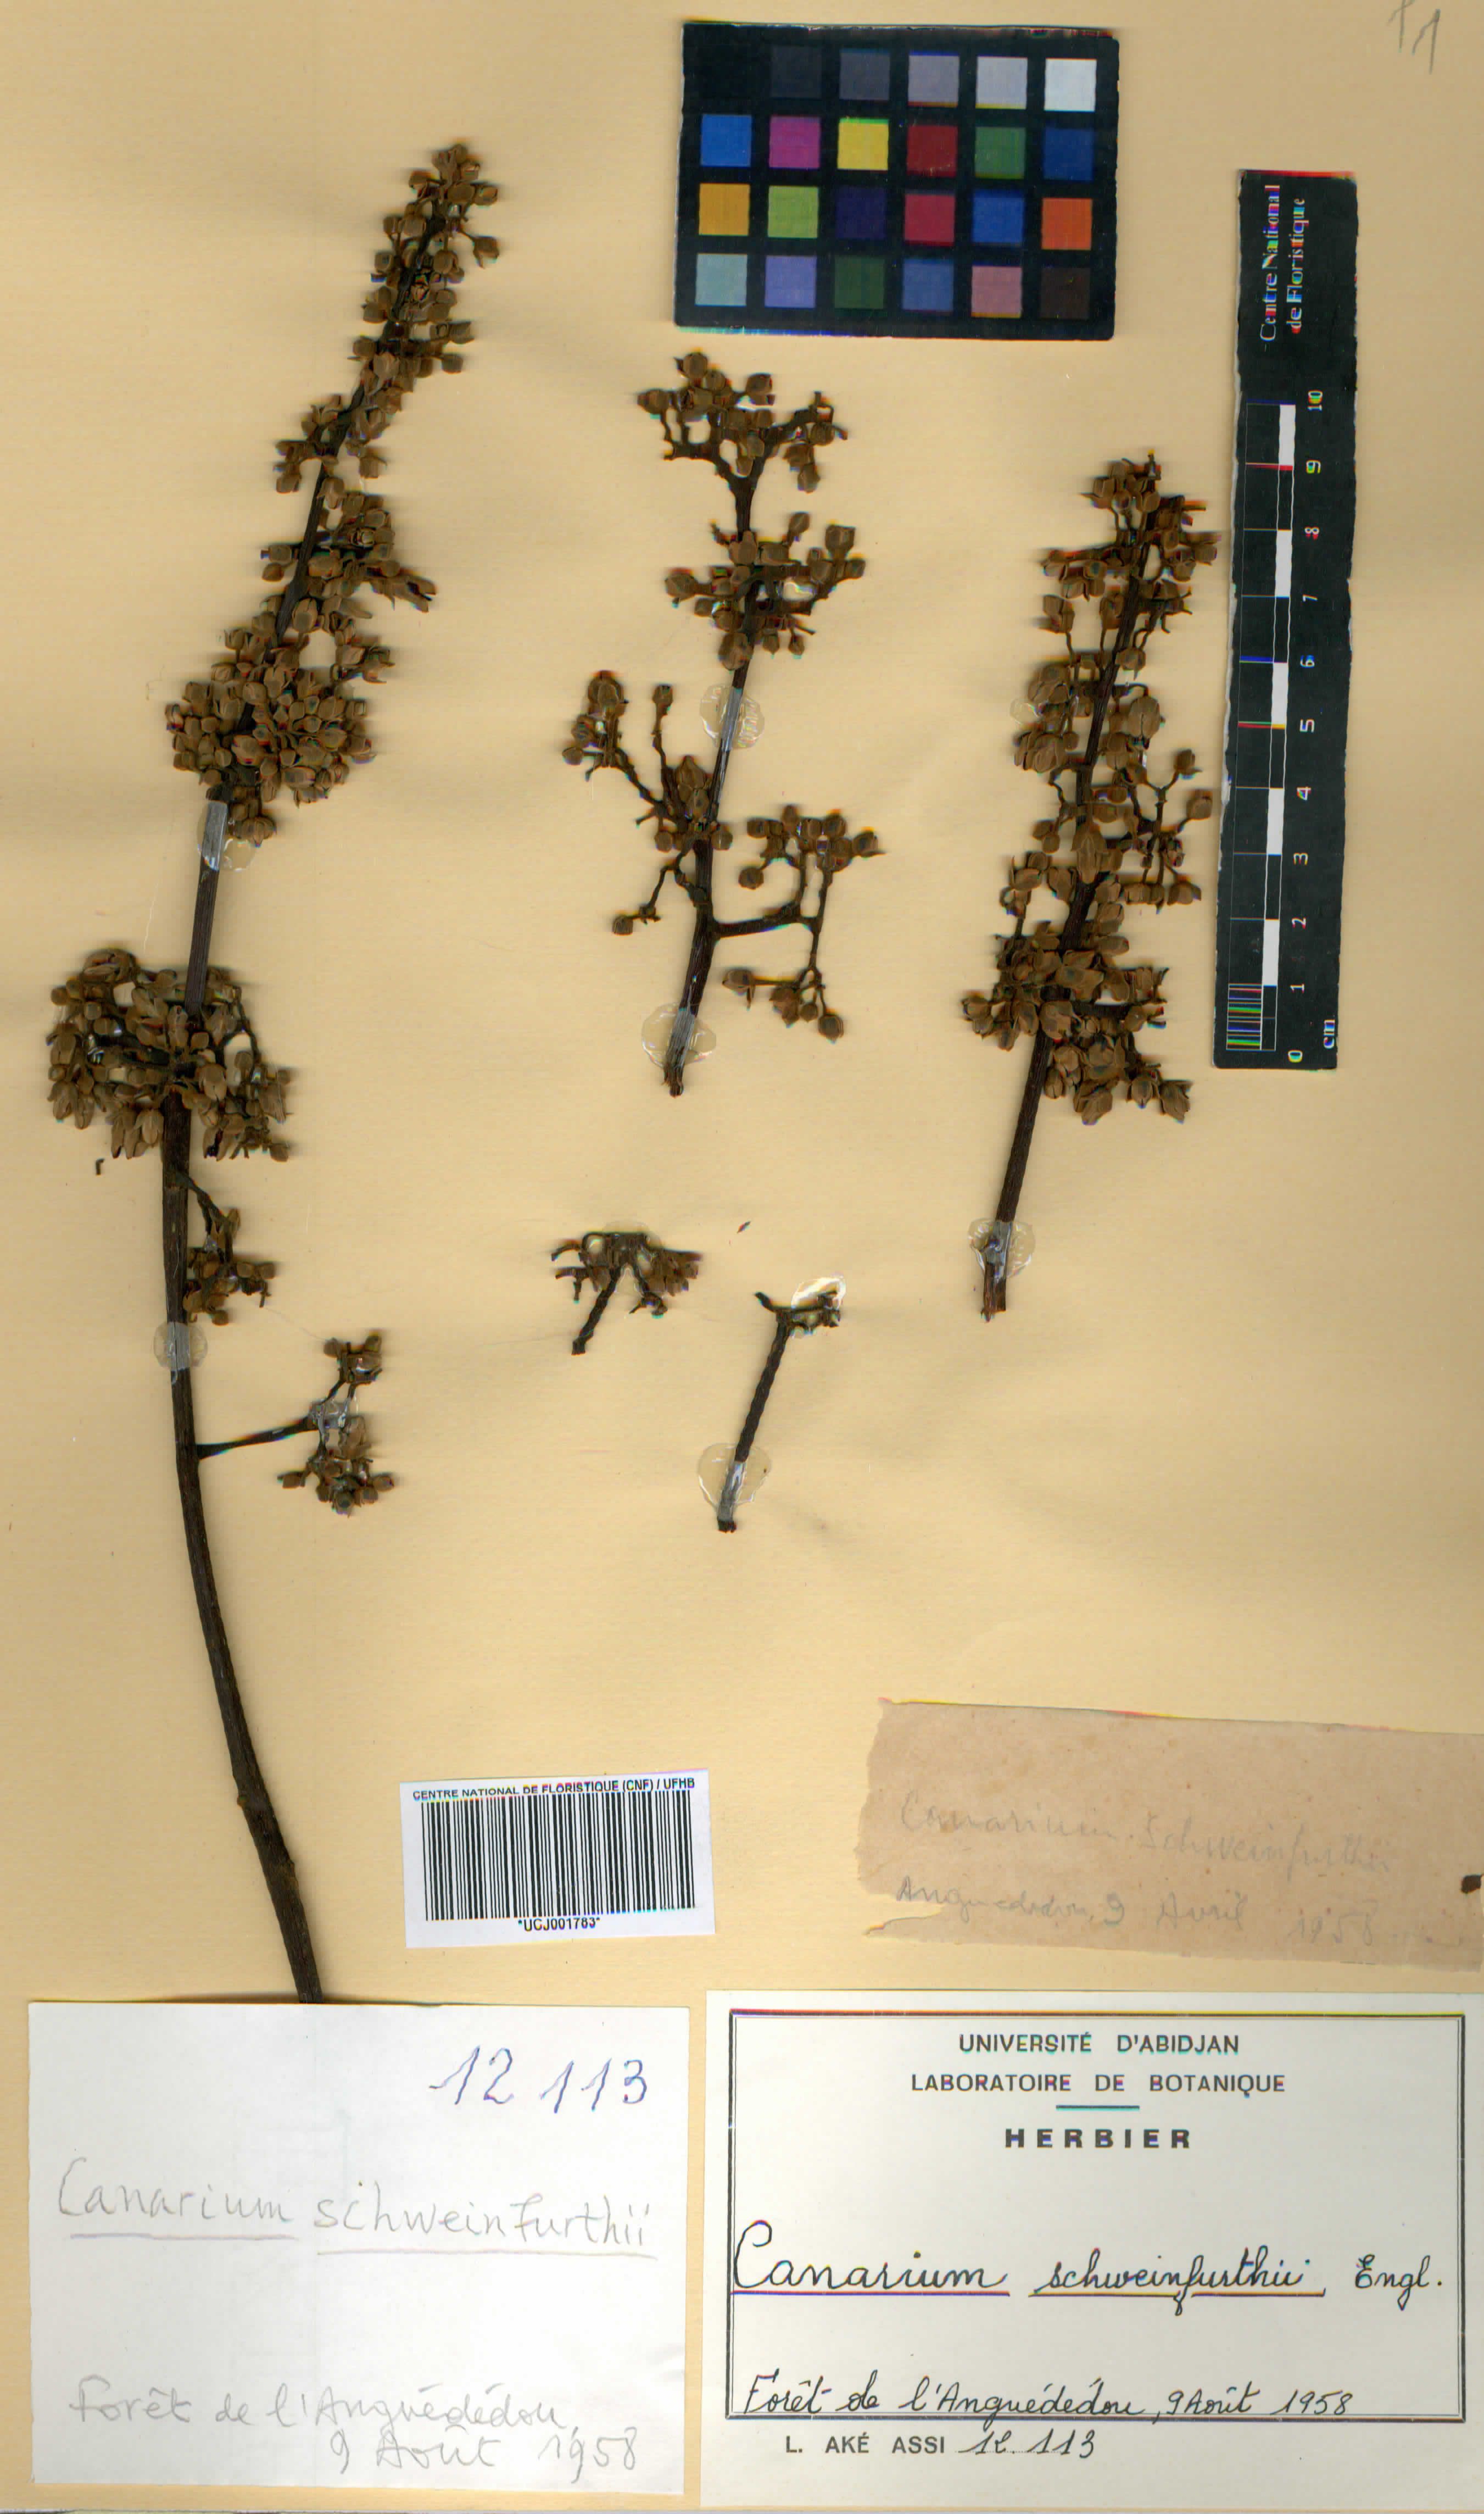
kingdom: Plantae
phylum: Tracheophyta
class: Magnoliopsida
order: Sapindales
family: Burseraceae
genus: Canarium
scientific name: Canarium schweinfurthii
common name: African elemi
